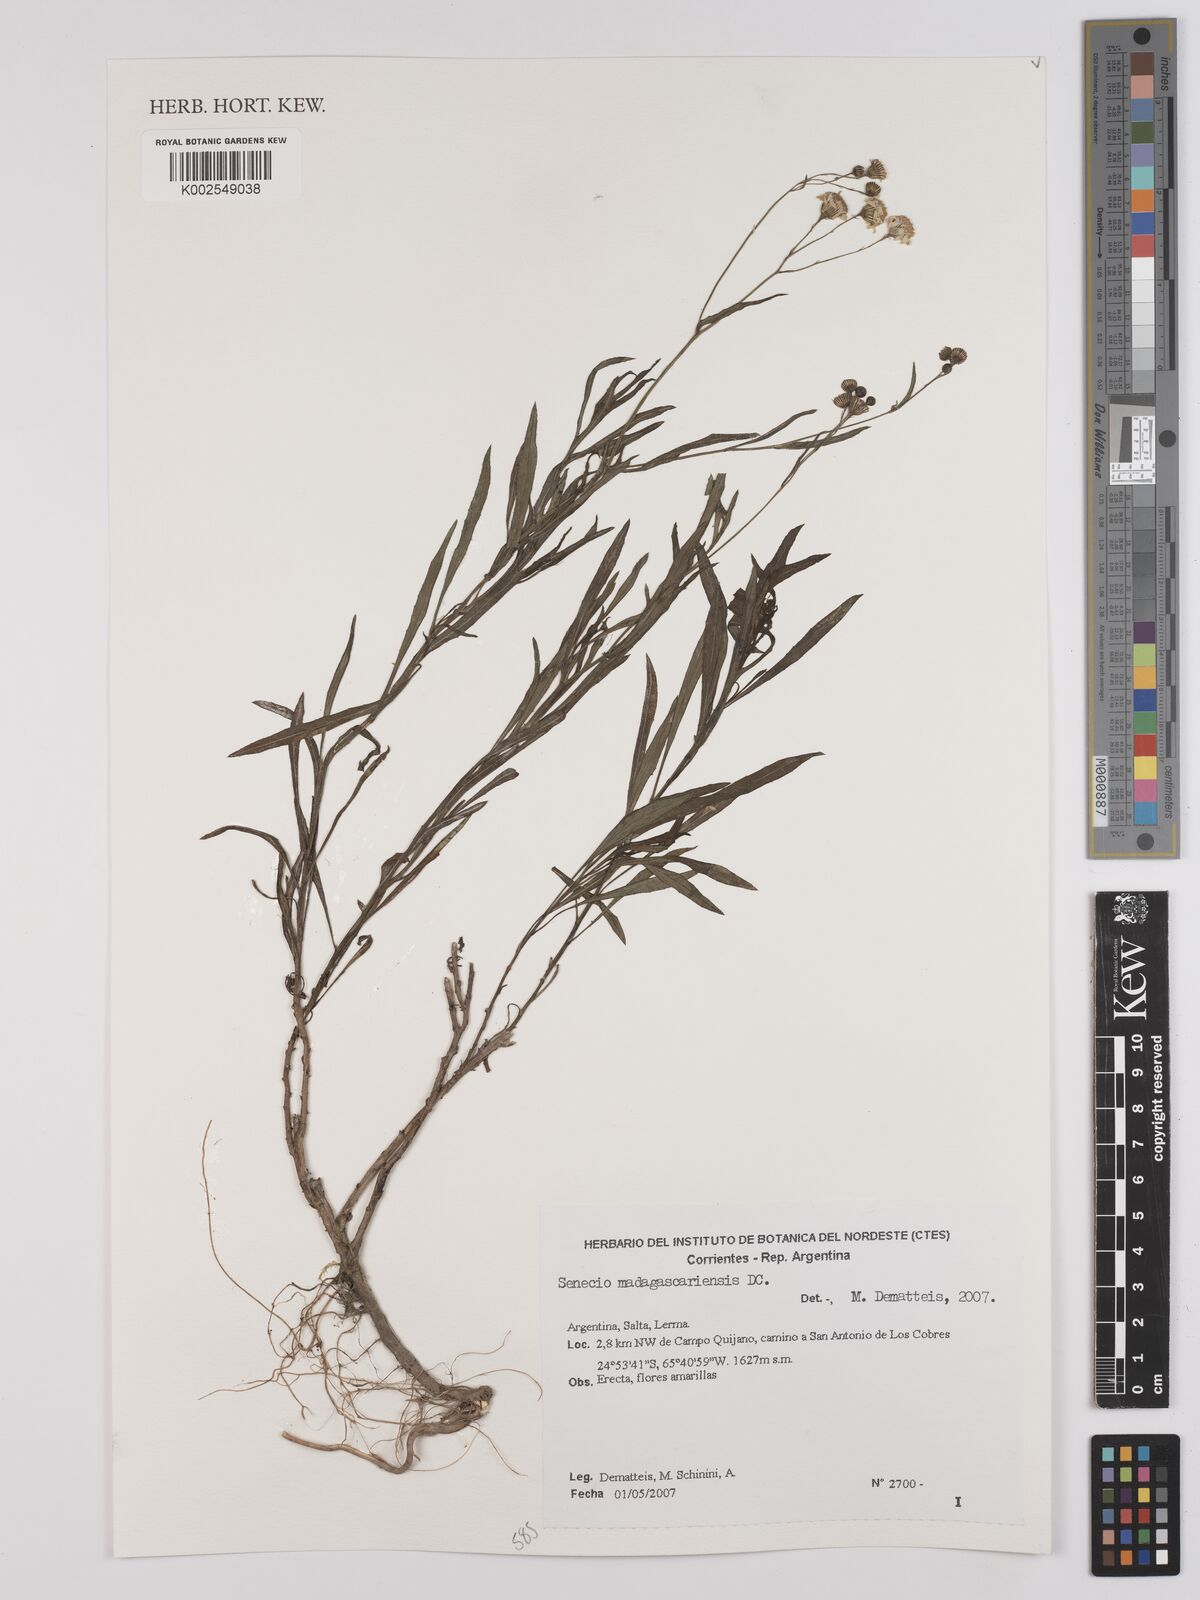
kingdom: Plantae
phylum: Tracheophyta
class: Magnoliopsida
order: Asterales
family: Asteraceae
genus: Senecio
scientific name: Senecio madagascariensis
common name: Madagascar ragwort
